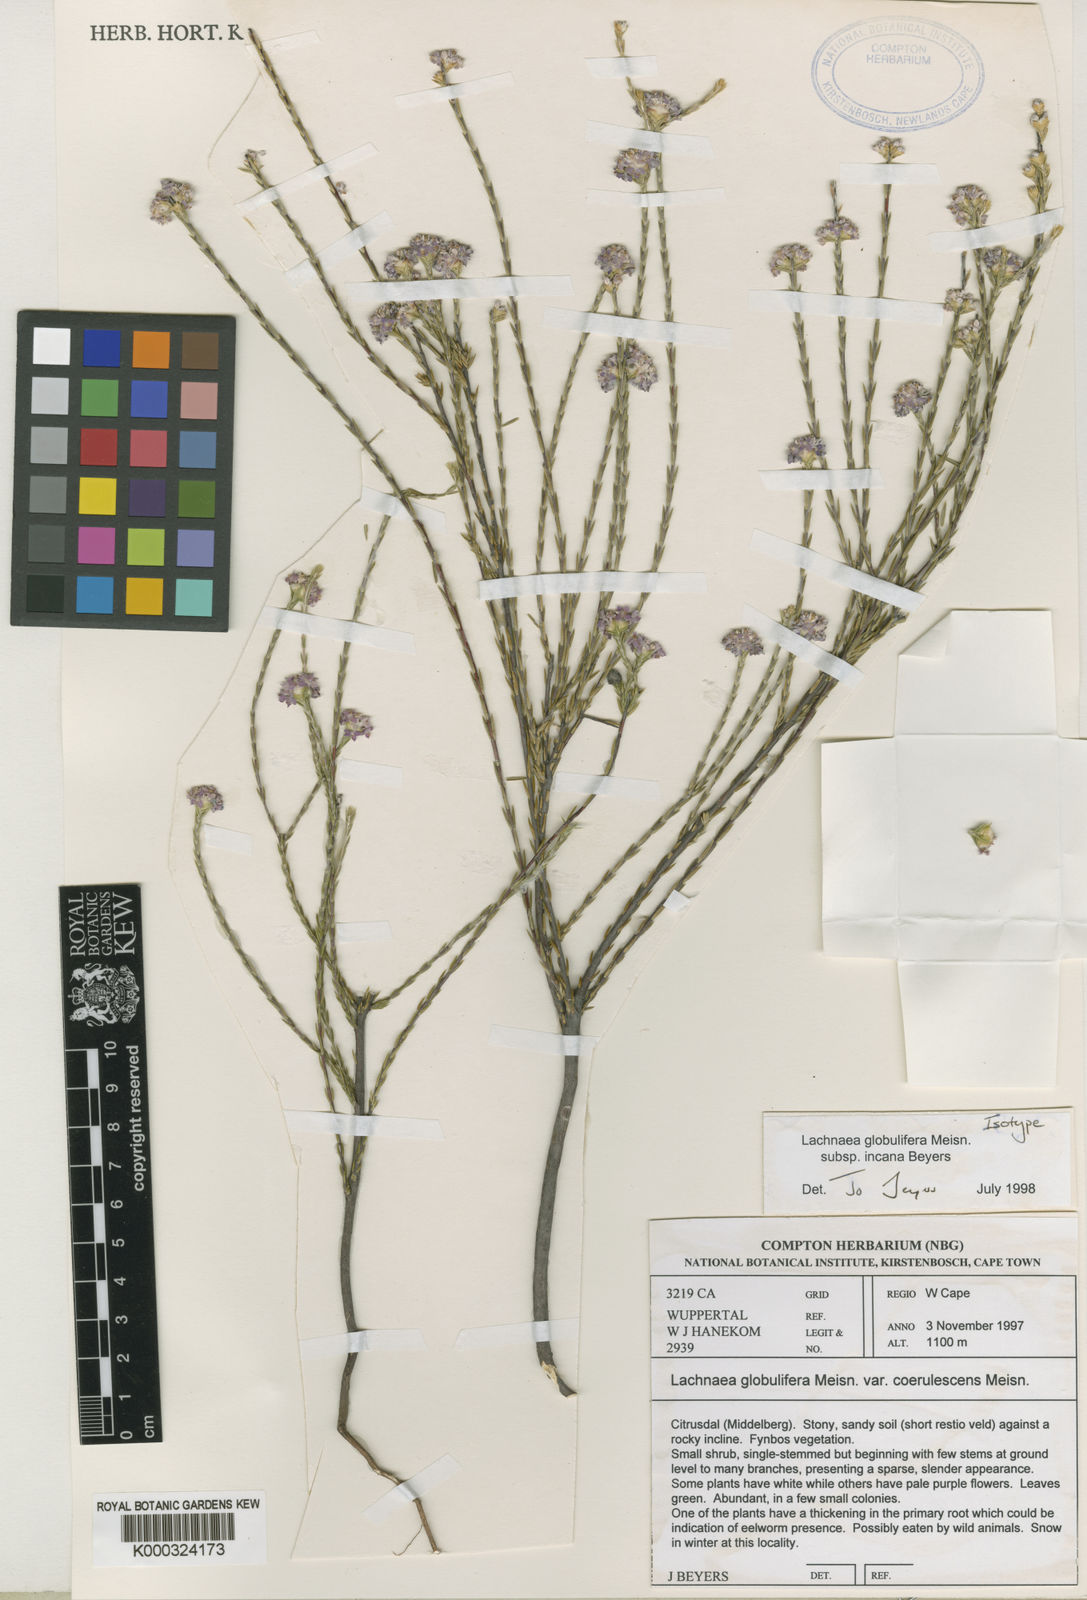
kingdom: Plantae
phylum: Tracheophyta
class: Magnoliopsida
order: Malvales
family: Thymelaeaceae
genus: Lachnaea
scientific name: Lachnaea globulifera
